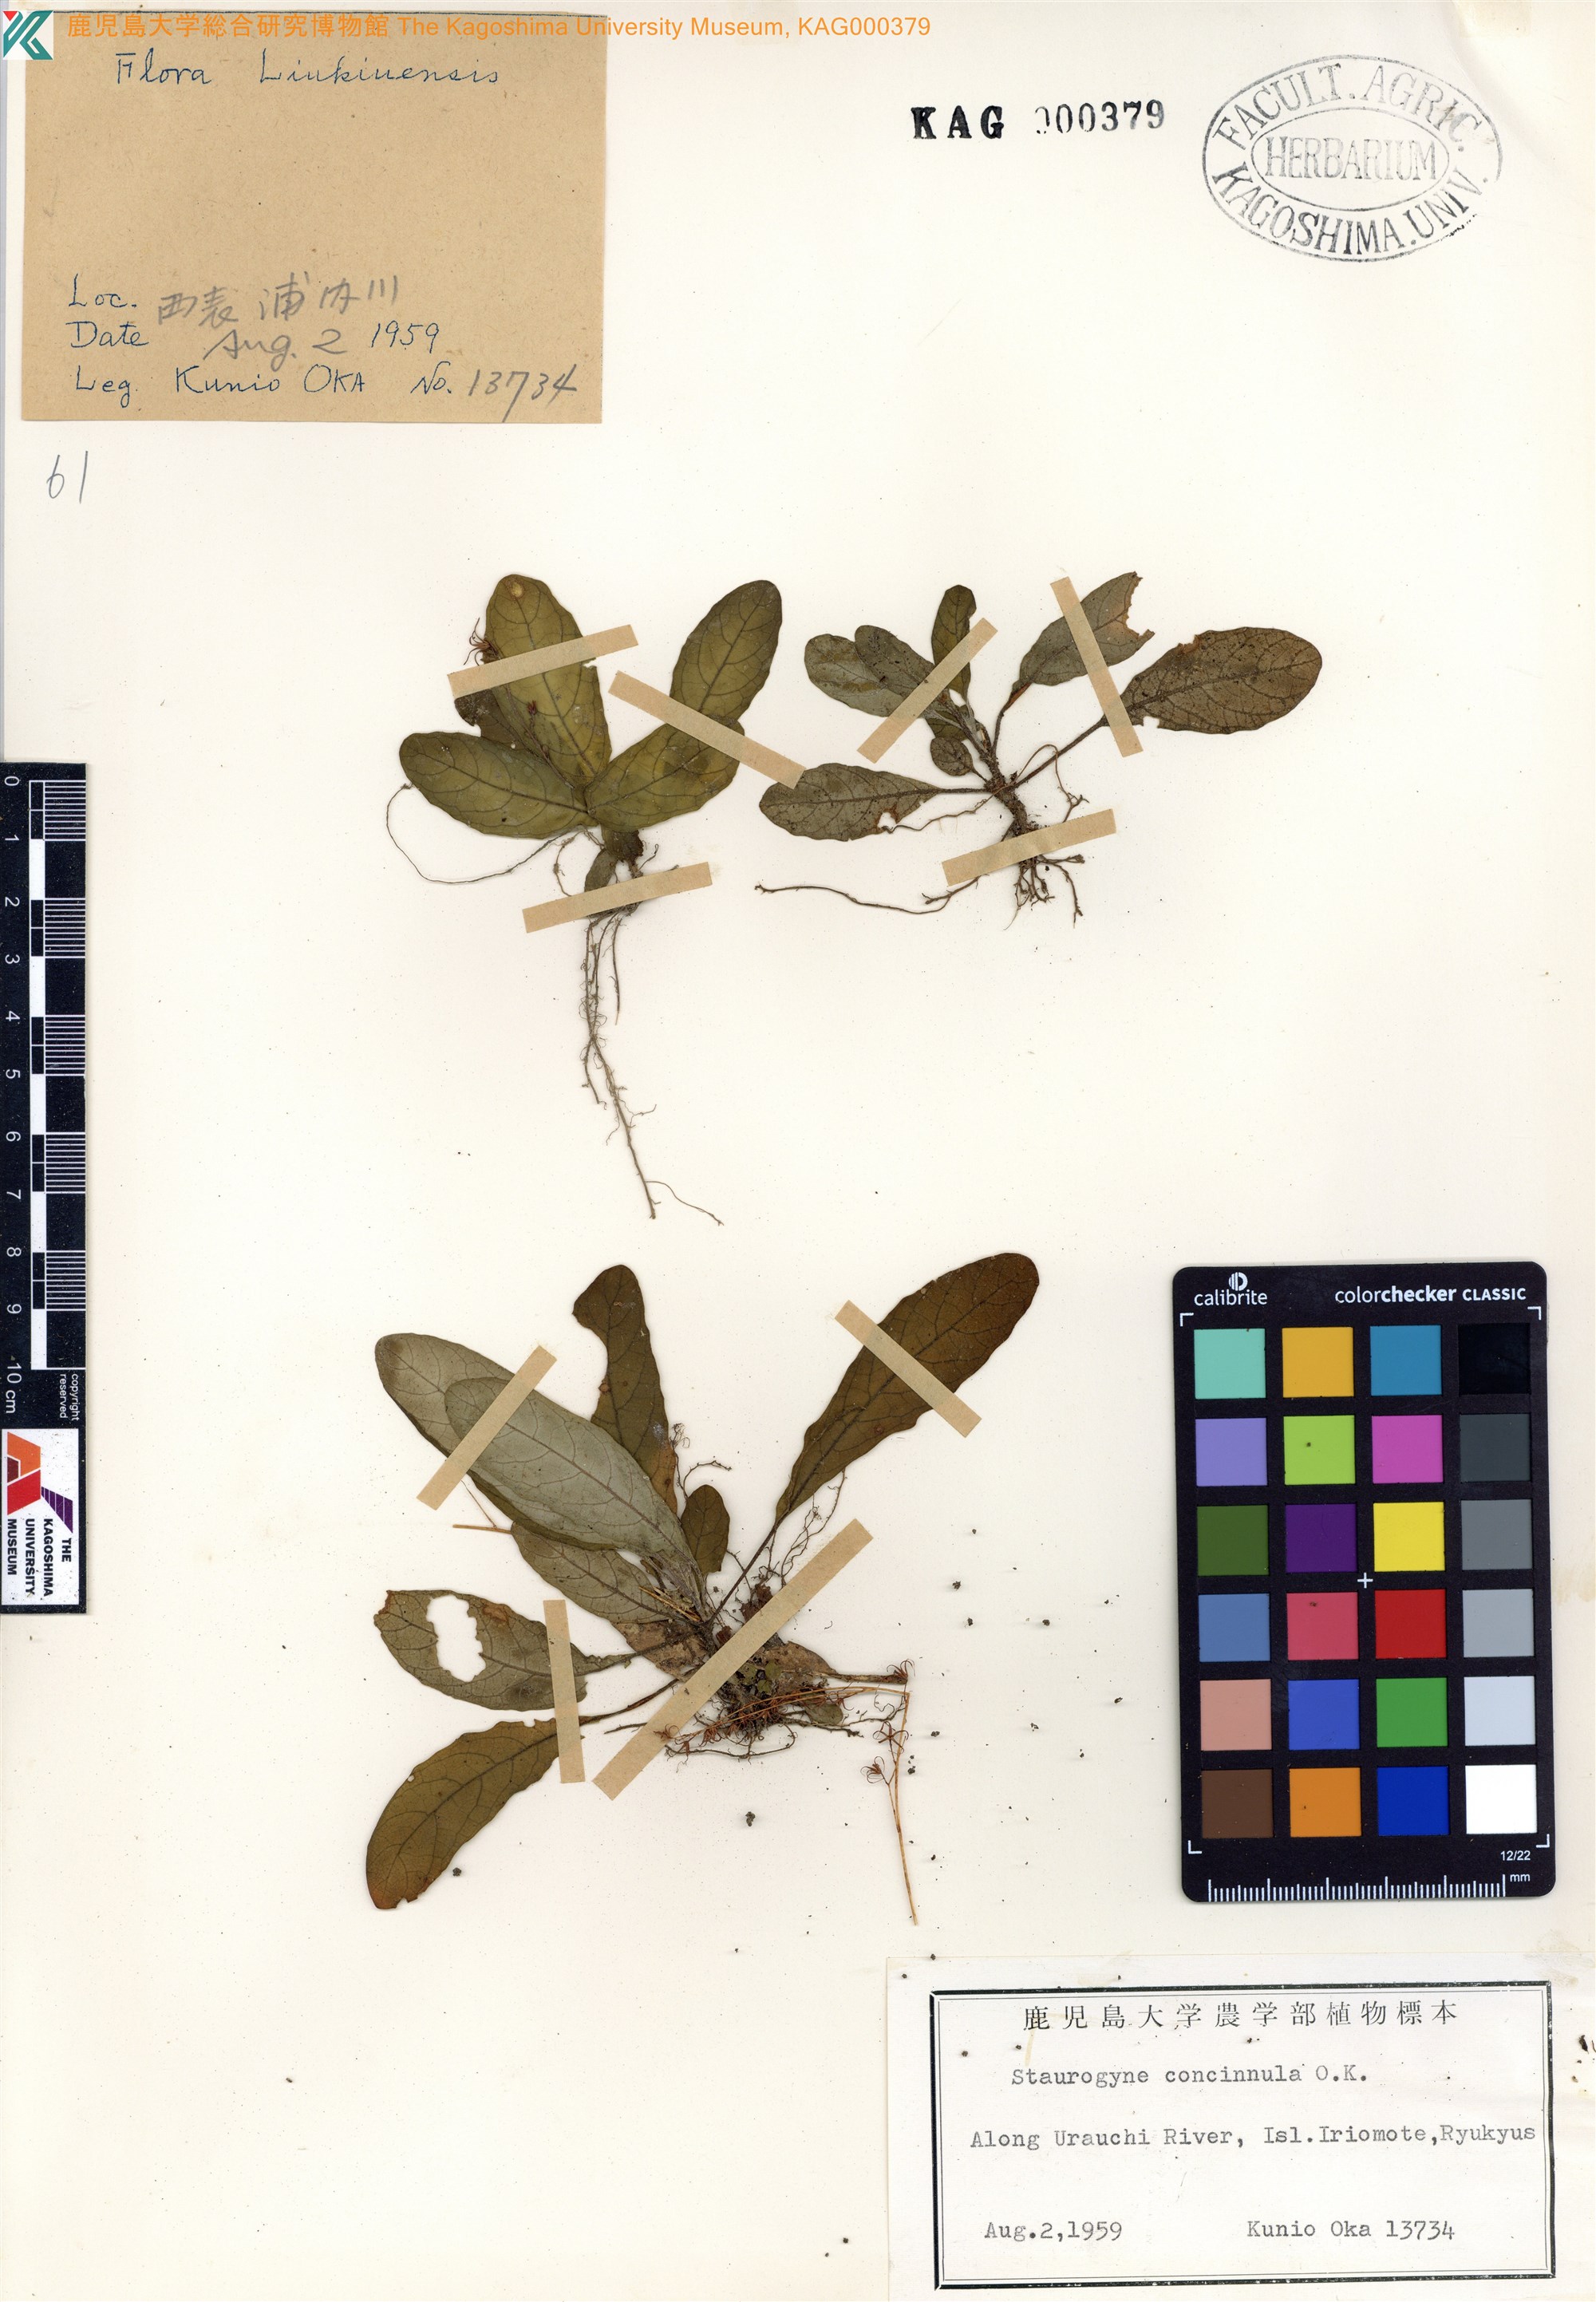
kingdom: Plantae
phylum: Tracheophyta
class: Magnoliopsida
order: Lamiales
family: Acanthaceae
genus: Staurogyne
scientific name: Staurogyne concinnula
